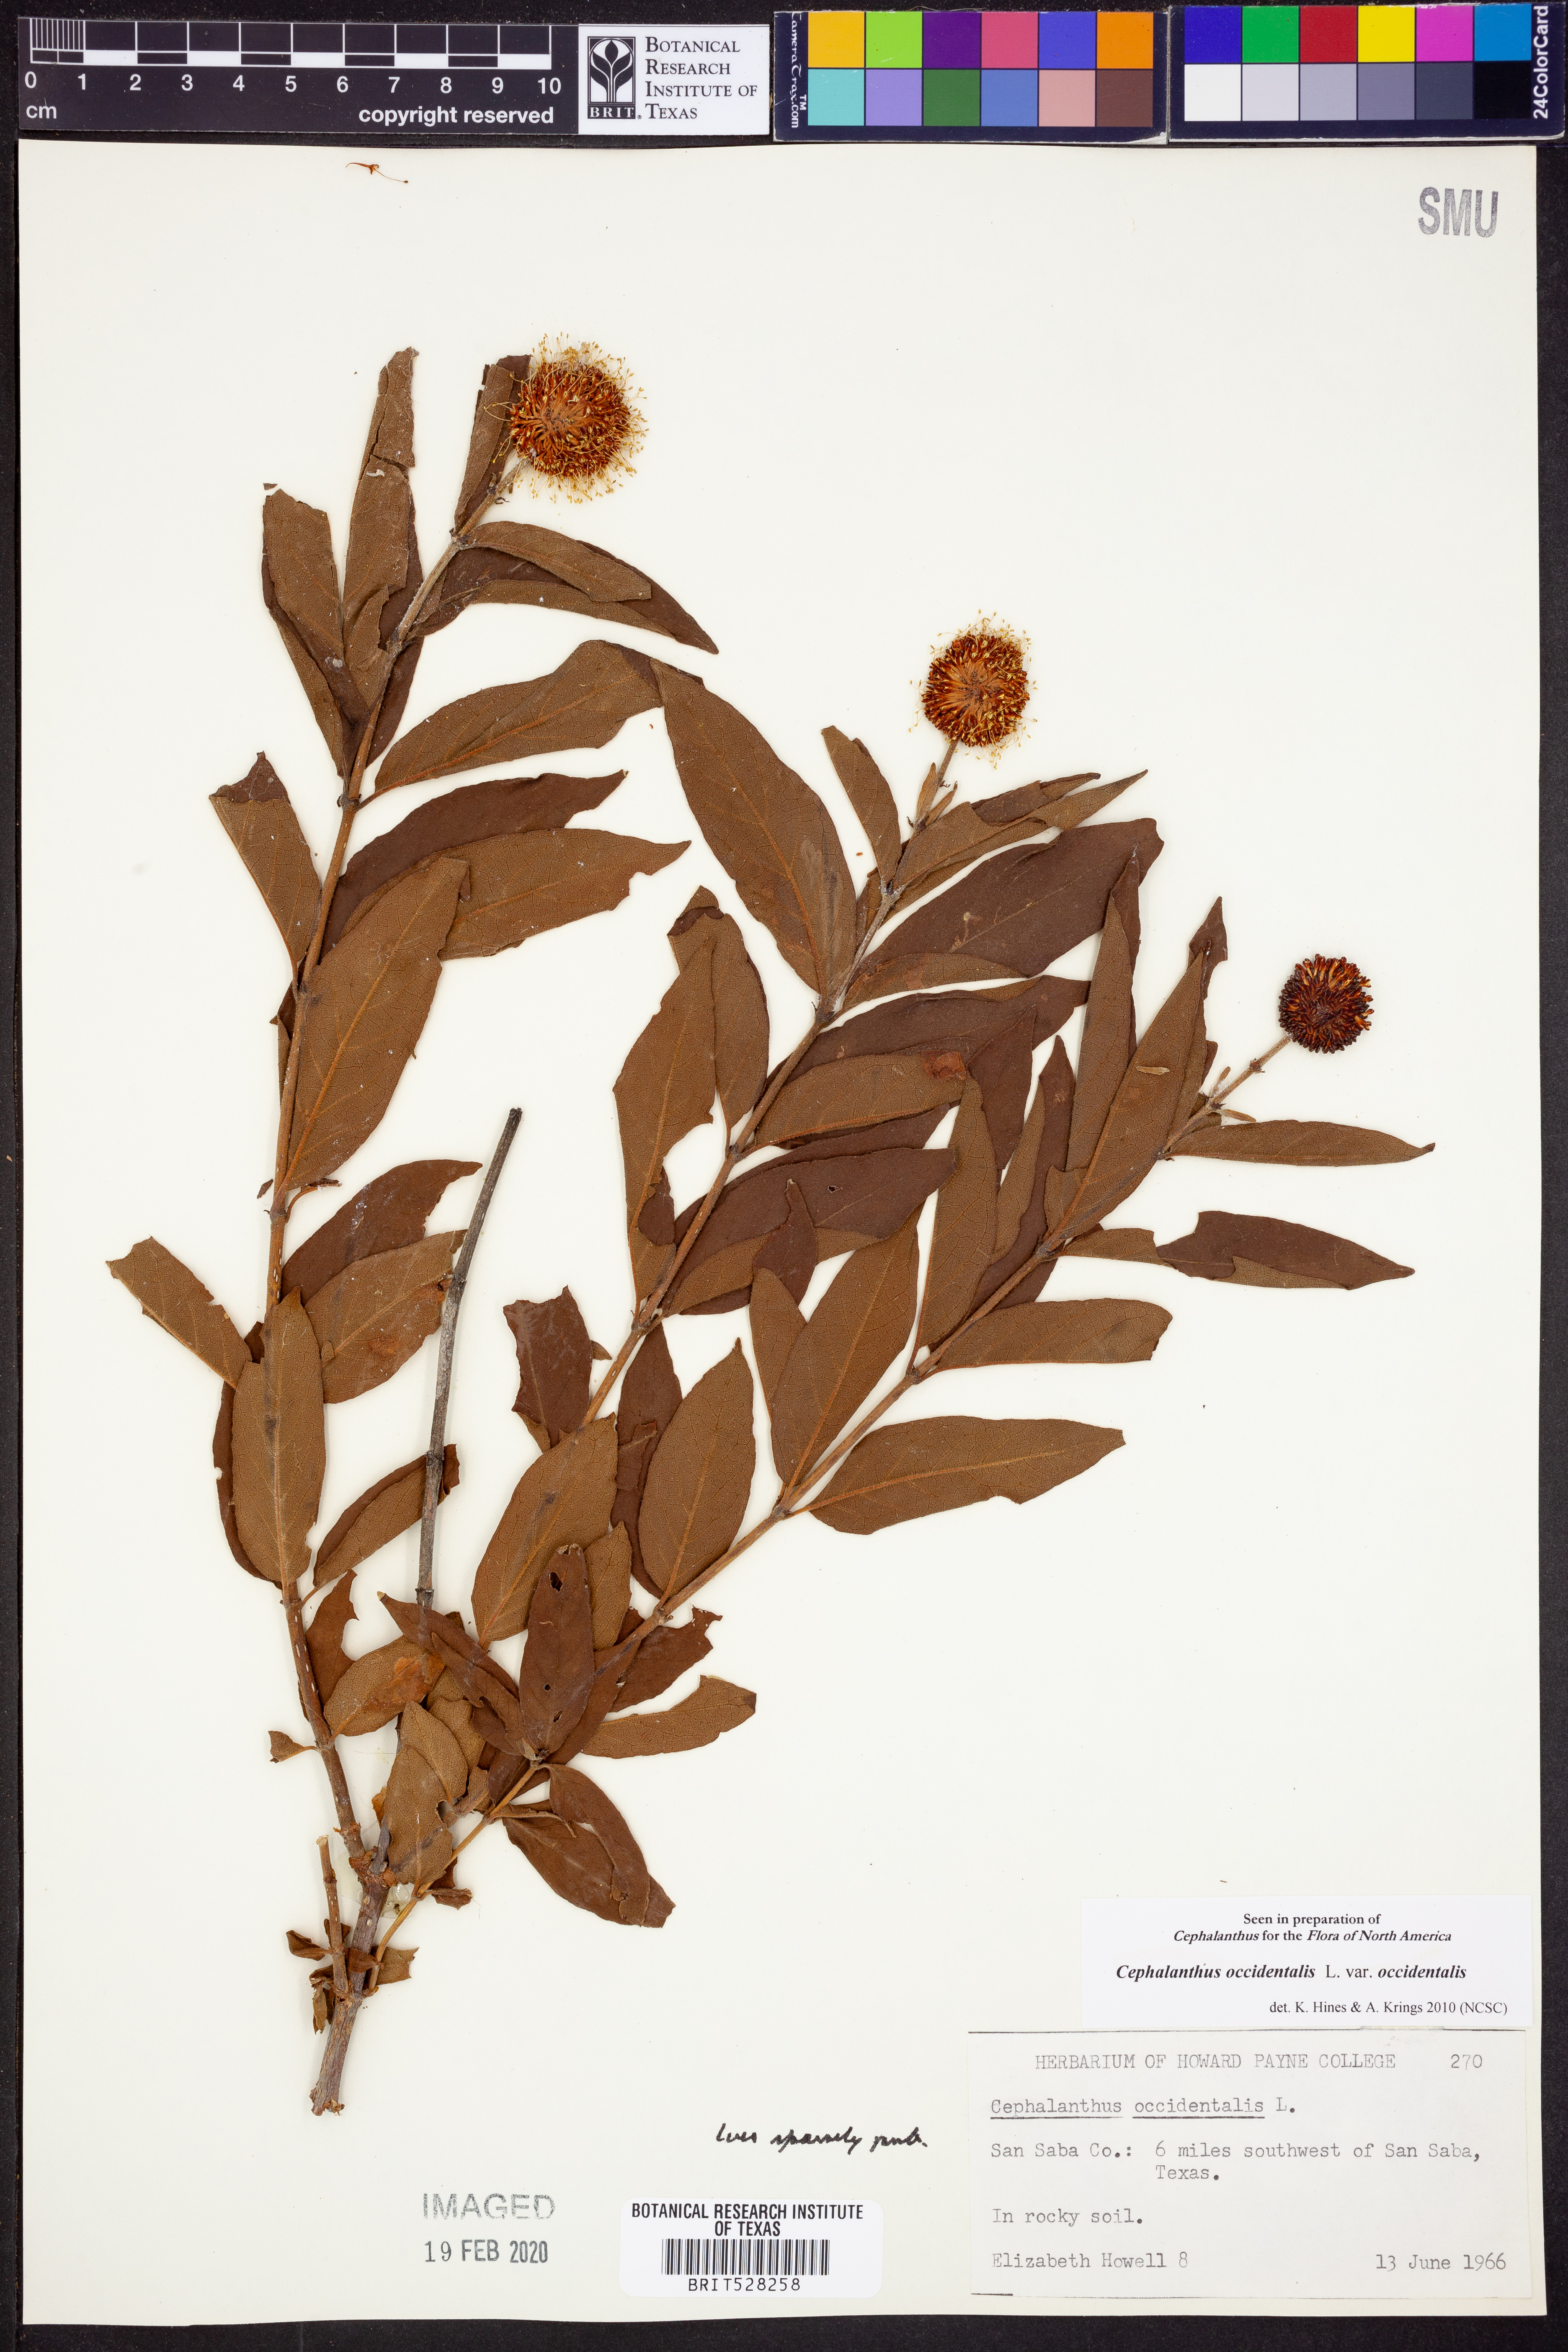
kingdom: Plantae
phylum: Tracheophyta
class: Magnoliopsida
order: Gentianales
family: Rubiaceae
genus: Cephalanthus
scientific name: Cephalanthus occidentalis
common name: Button-willow
